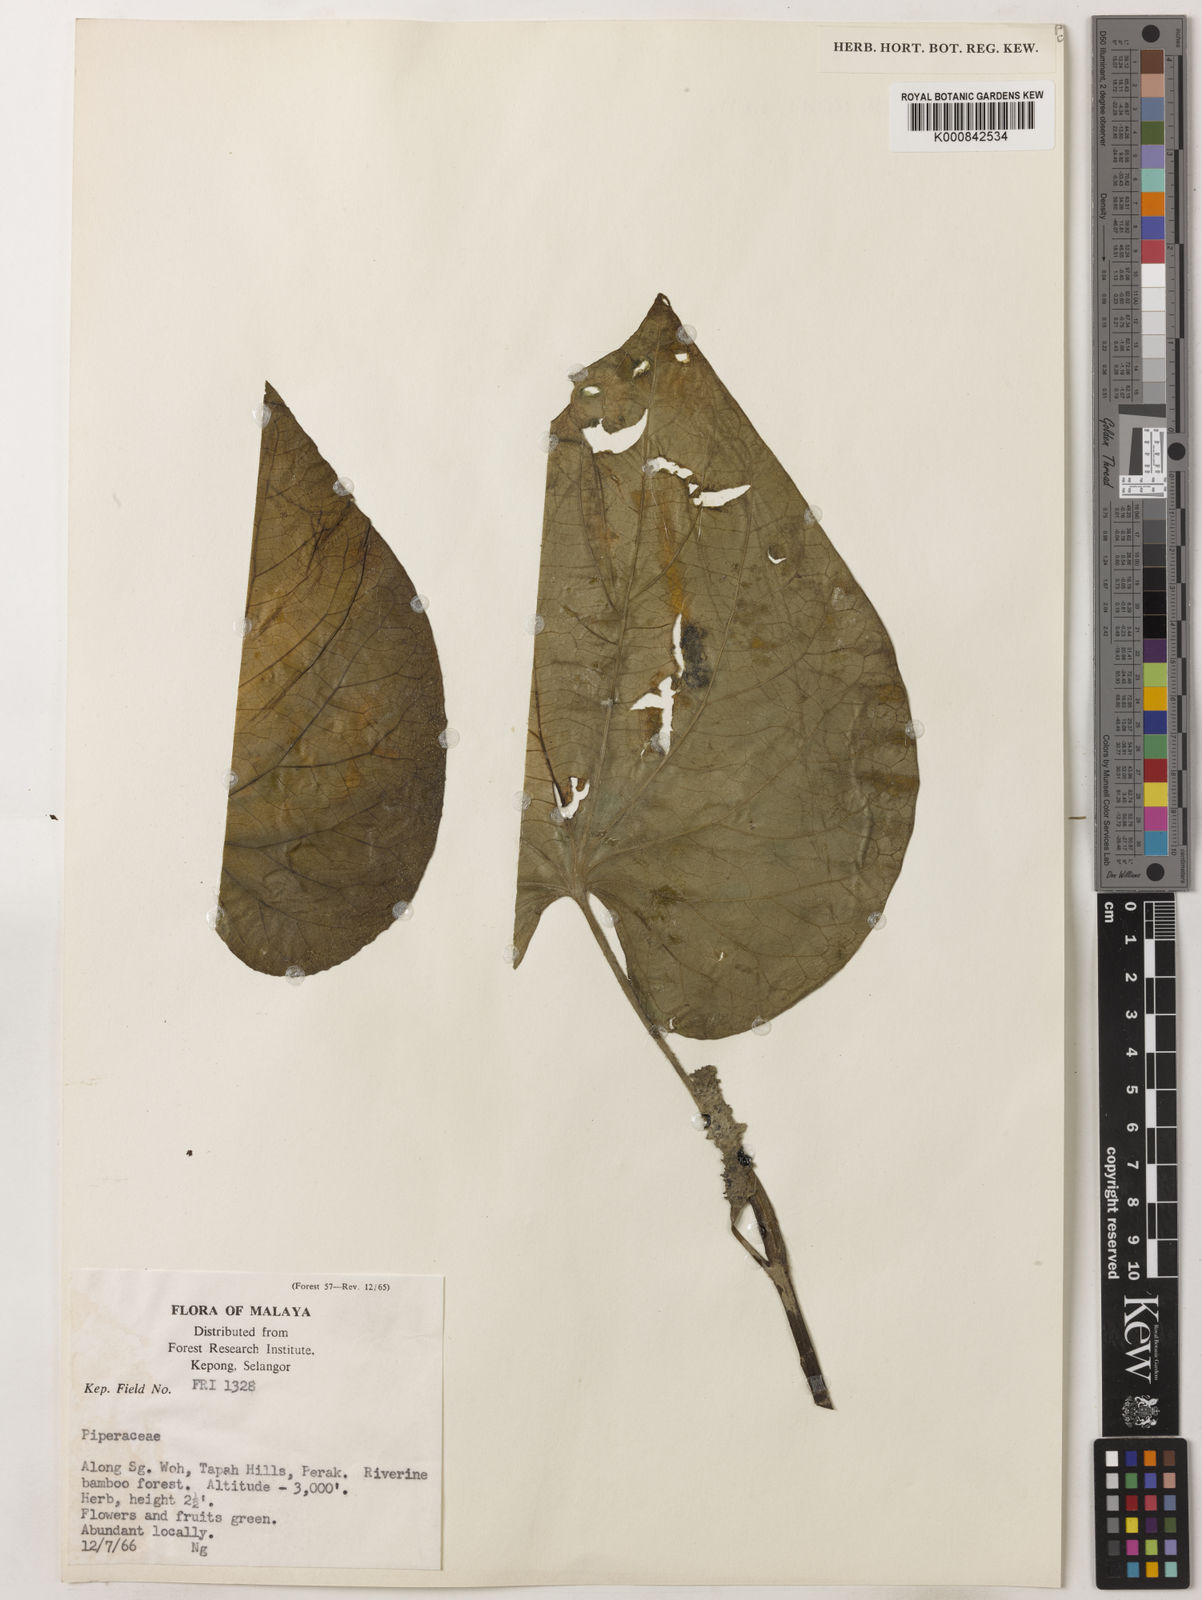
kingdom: Plantae
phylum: Tracheophyta
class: Magnoliopsida
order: Piperales
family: Piperaceae
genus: Piper
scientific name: Piper
